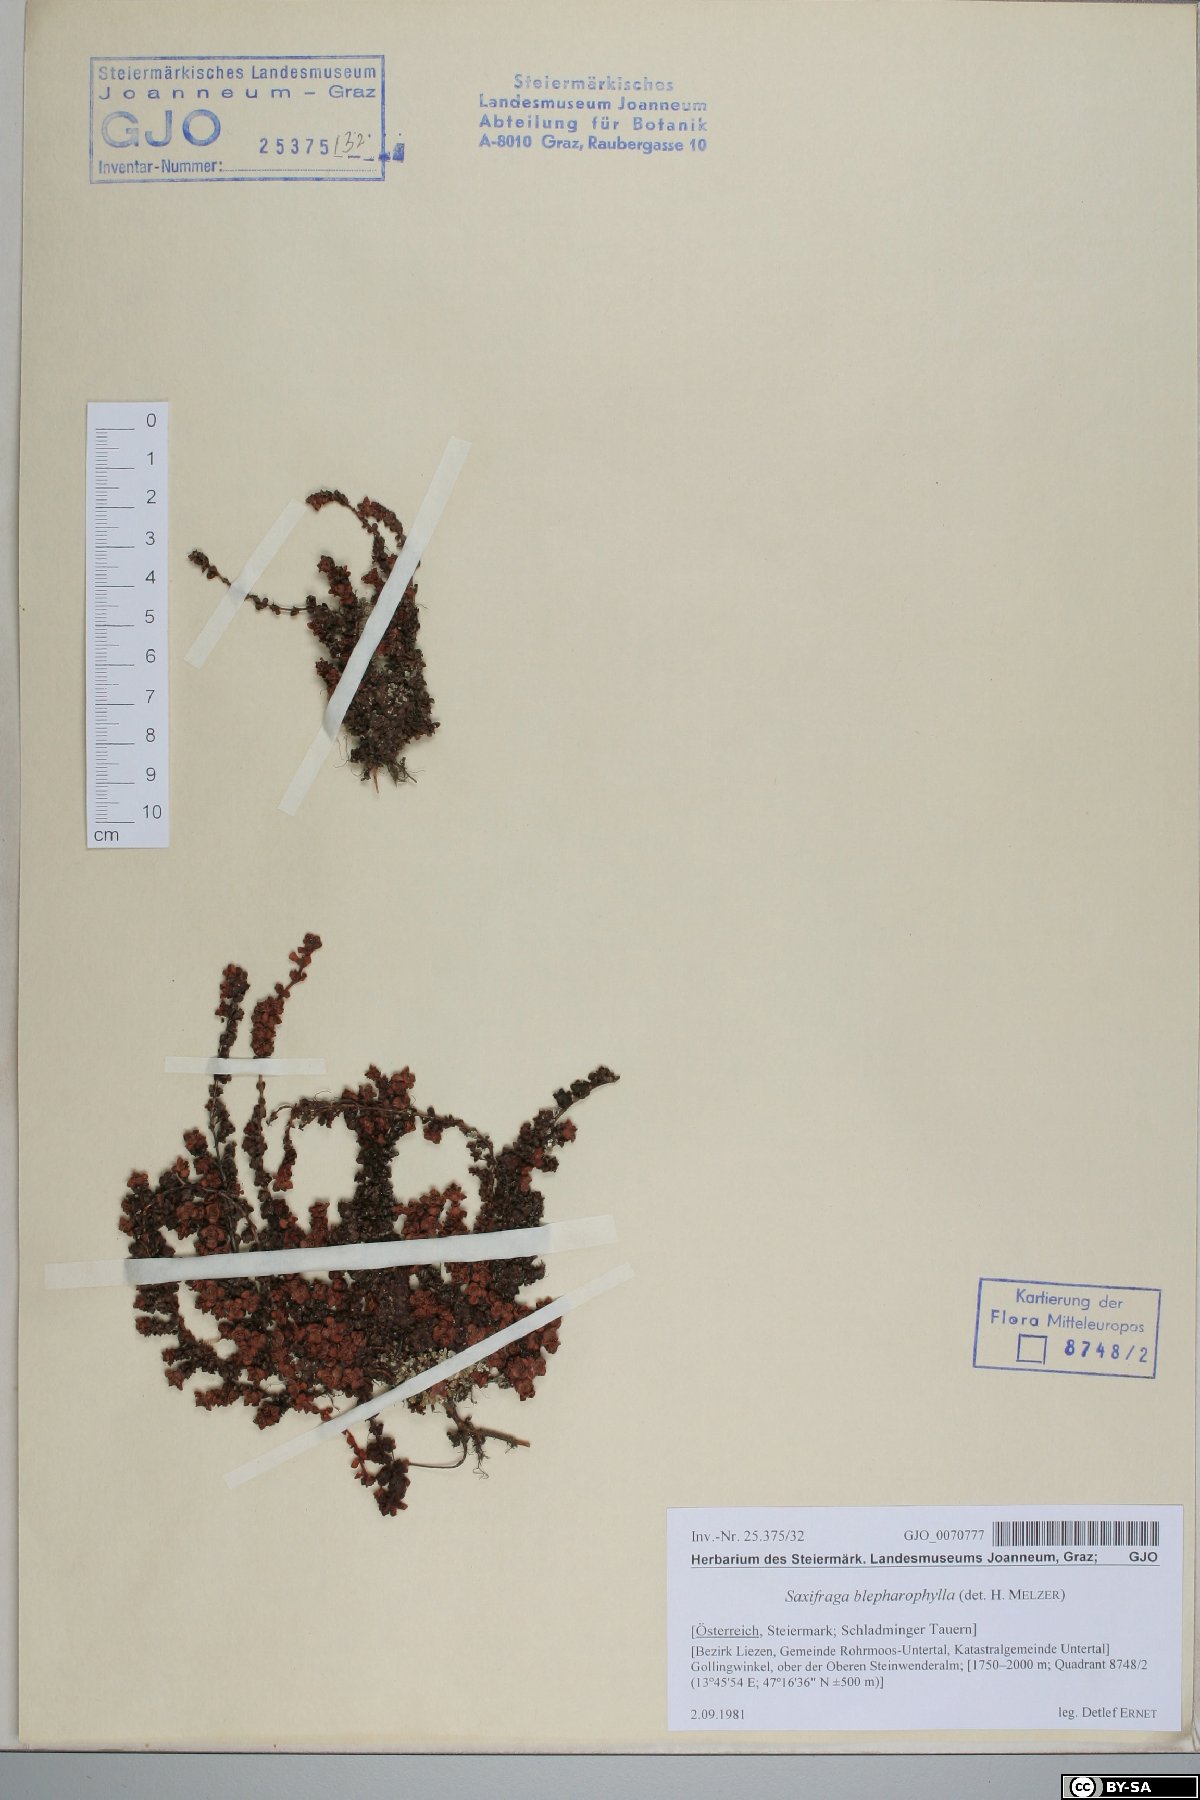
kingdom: Plantae
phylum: Tracheophyta
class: Magnoliopsida
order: Saxifragales
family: Saxifragaceae
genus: Saxifraga
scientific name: Saxifraga oppositifolia
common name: Purple saxifrage
